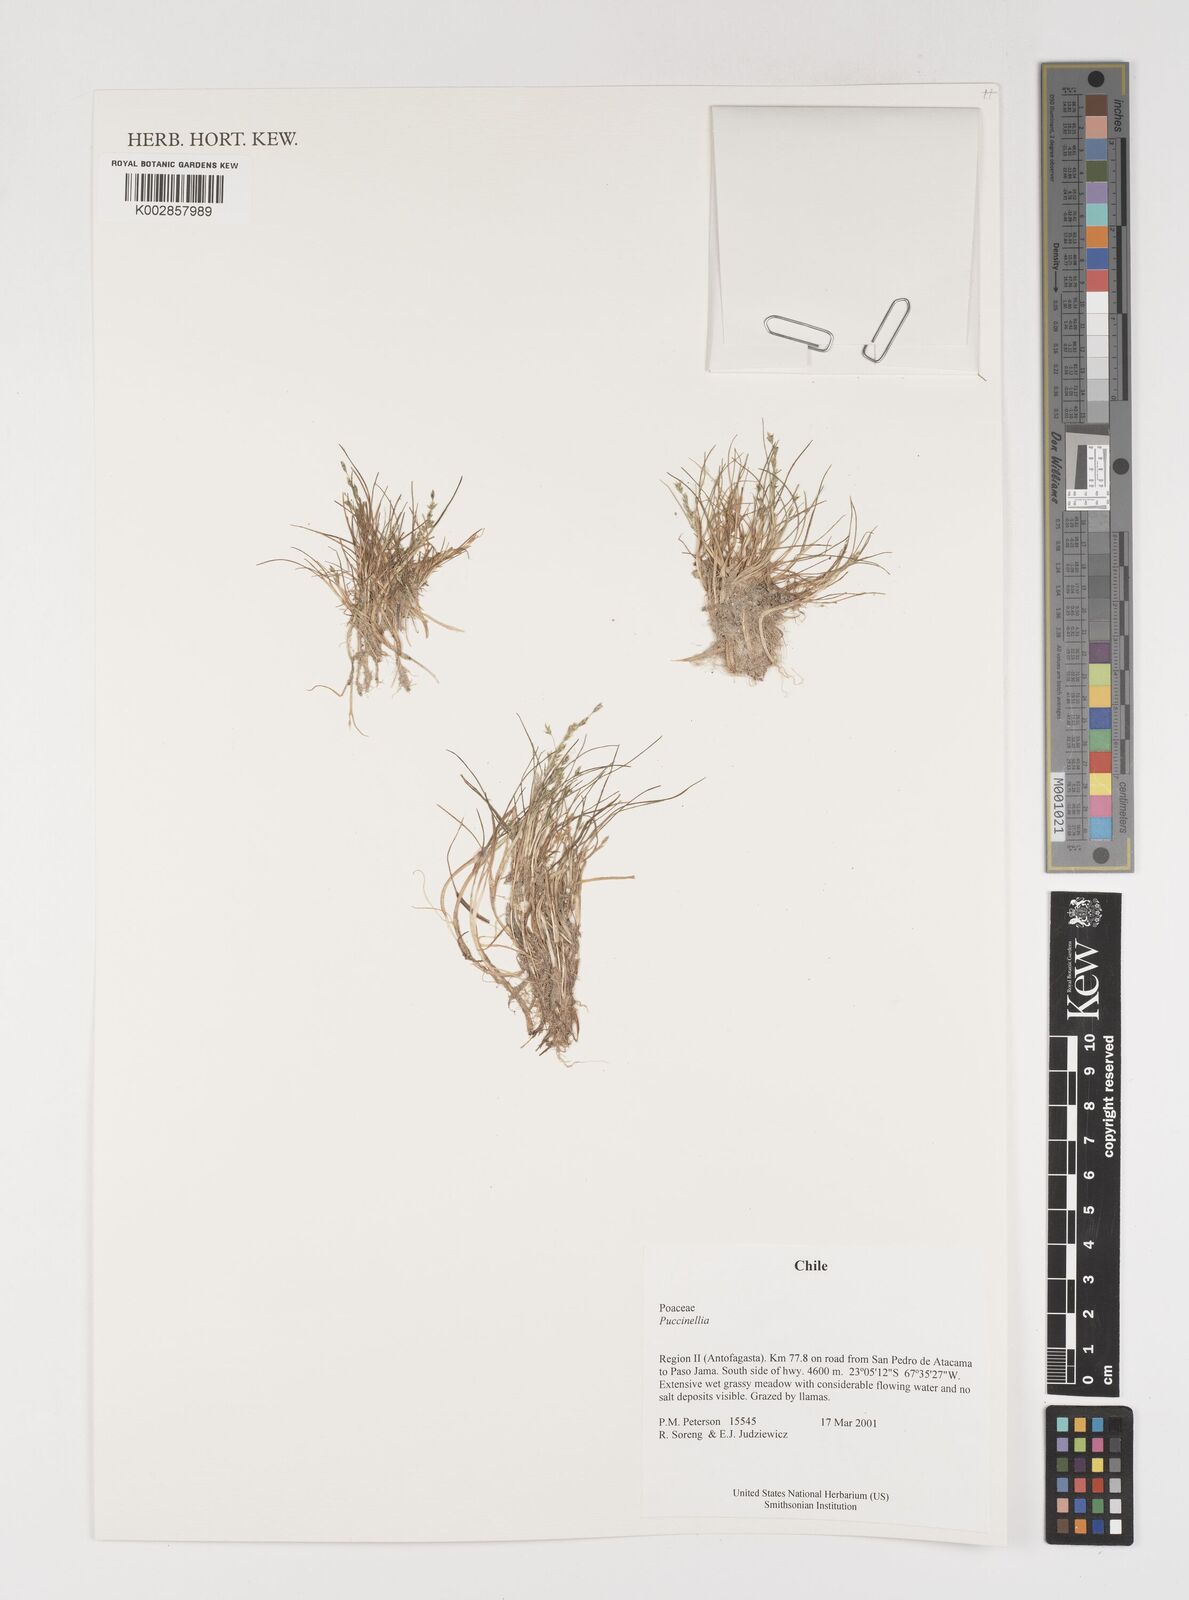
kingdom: Plantae
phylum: Tracheophyta
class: Liliopsida
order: Poales
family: Poaceae
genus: Puccinellia
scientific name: Puccinellia
